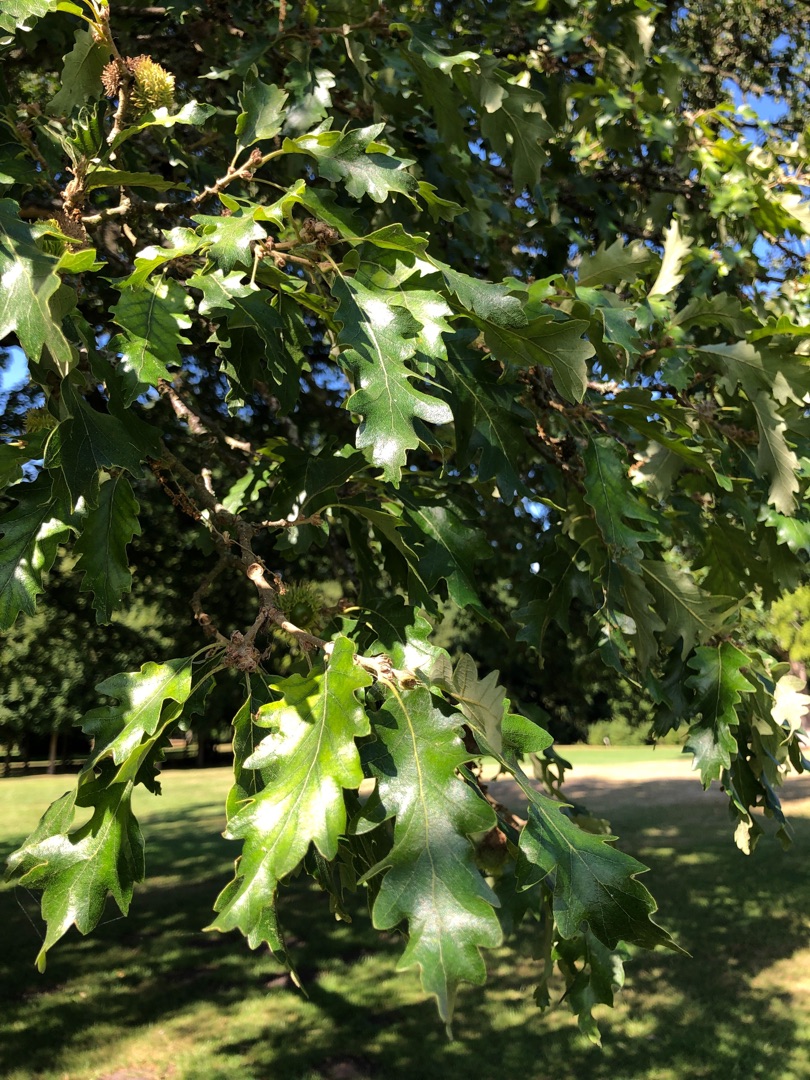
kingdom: Plantae
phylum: Tracheophyta
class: Magnoliopsida
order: Fagales
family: Fagaceae
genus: Quercus
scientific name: Quercus cerris
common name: Frynse-eg
